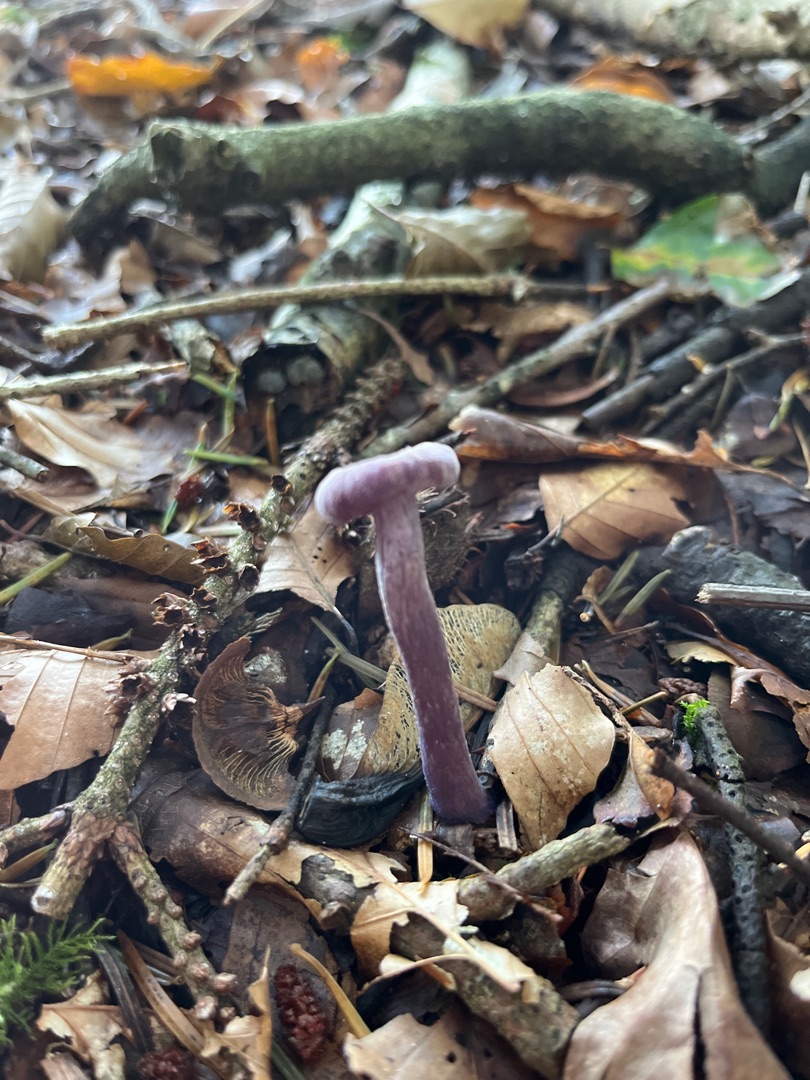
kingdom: Fungi
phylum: Basidiomycota
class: Agaricomycetes
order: Agaricales
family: Hydnangiaceae
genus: Laccaria
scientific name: Laccaria amethystina
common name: Violet ametysthat
